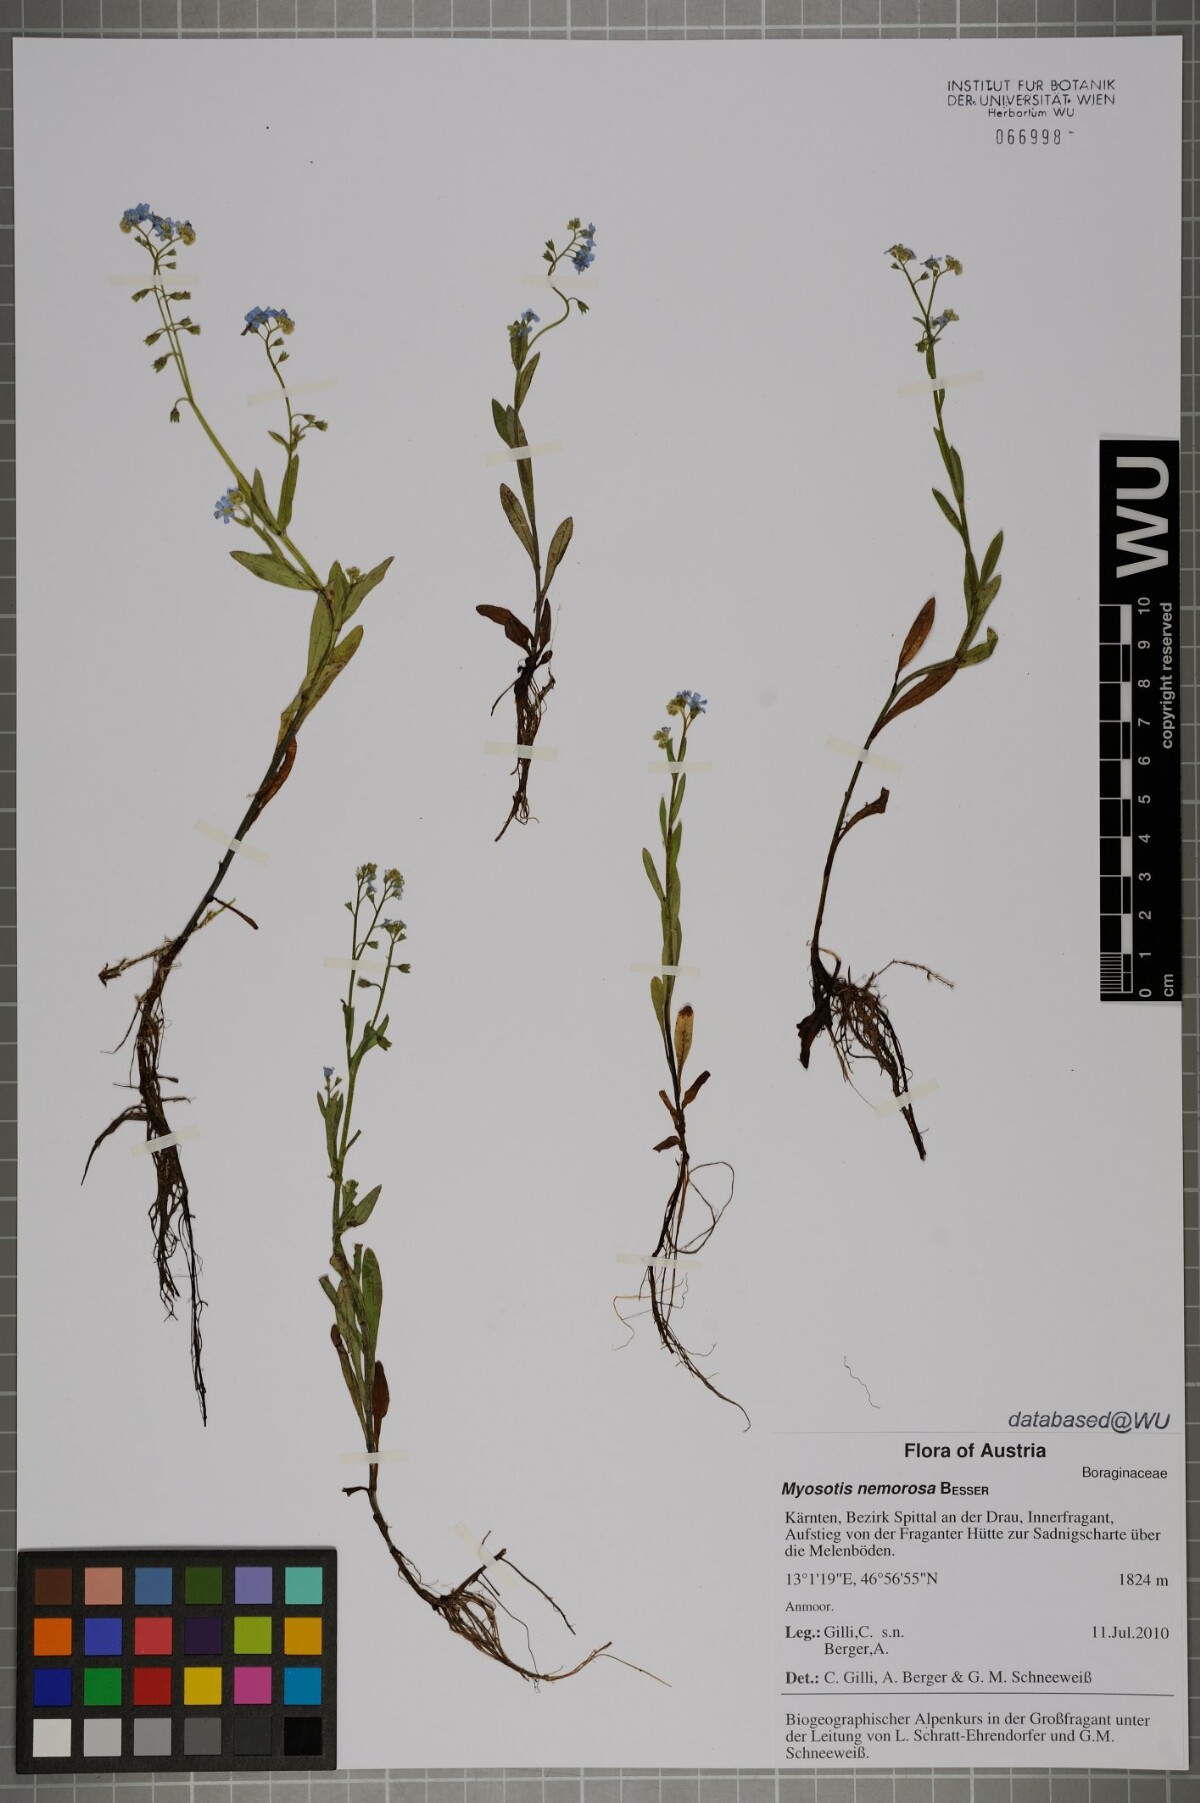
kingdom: Plantae
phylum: Tracheophyta
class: Magnoliopsida
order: Boraginales
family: Boraginaceae
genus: Myosotis
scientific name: Myosotis nemorosa
